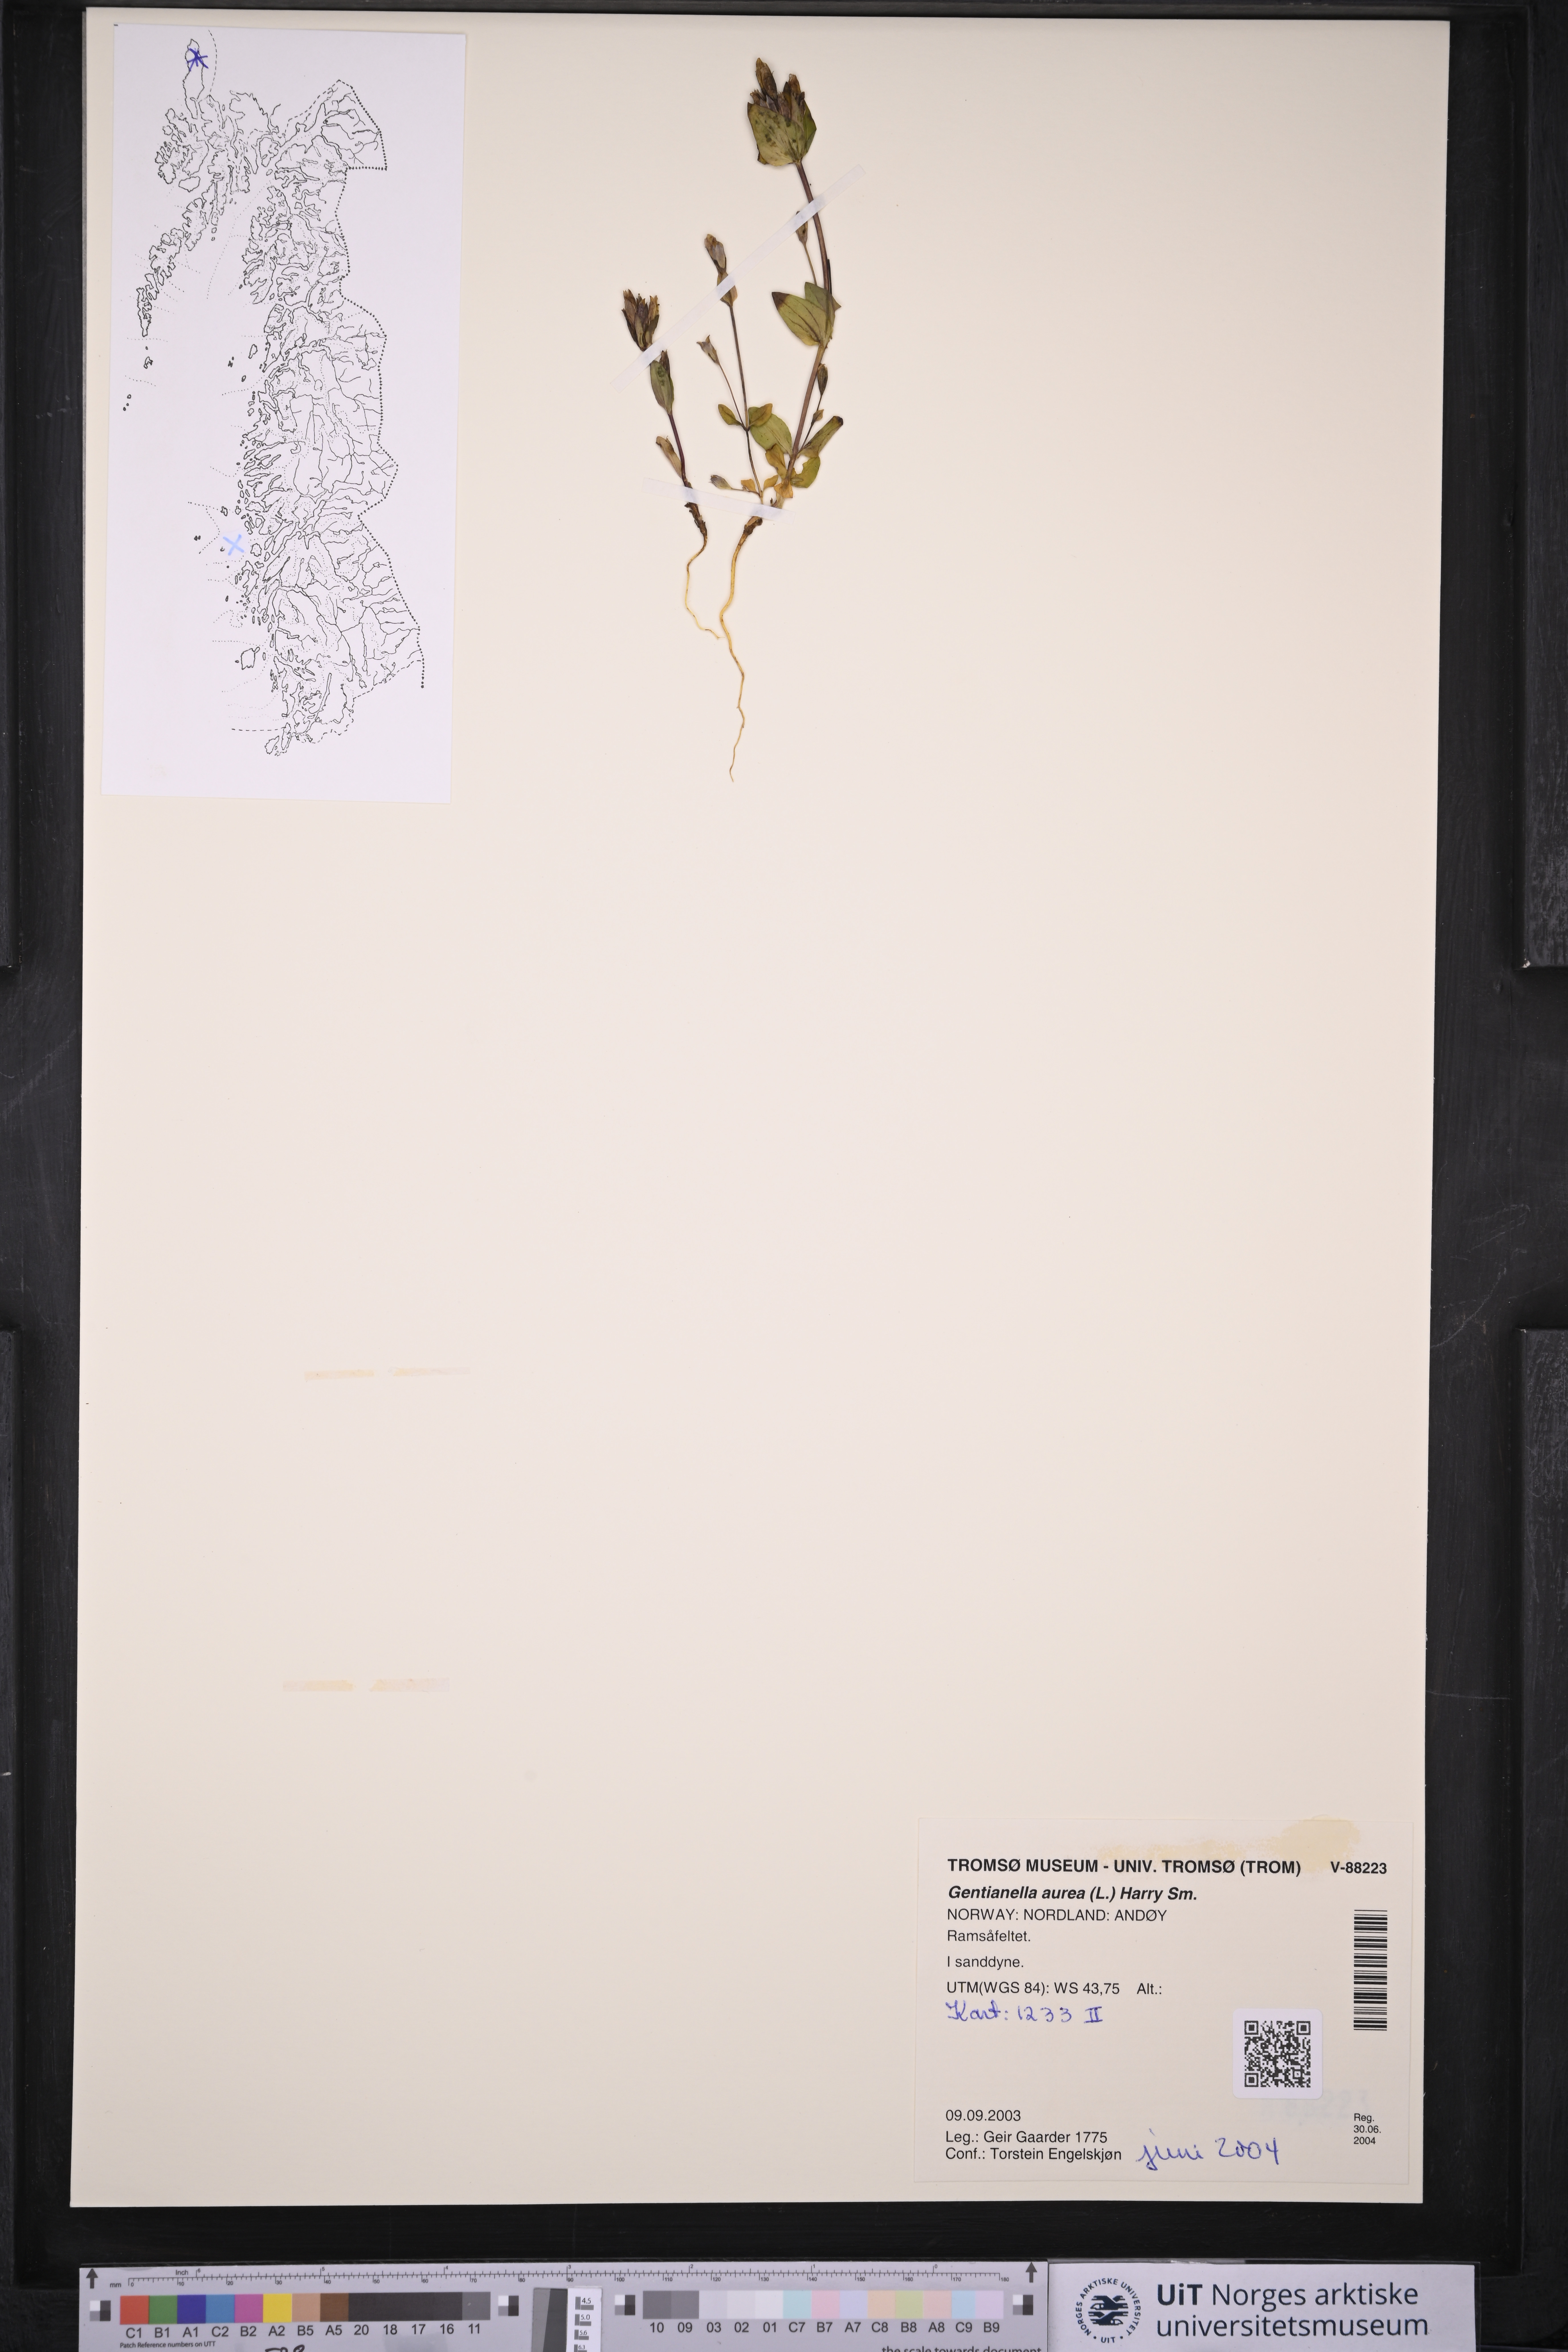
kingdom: Plantae
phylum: Tracheophyta
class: Magnoliopsida
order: Gentianales
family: Gentianaceae
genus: Gentianella
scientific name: Gentianella aurea
